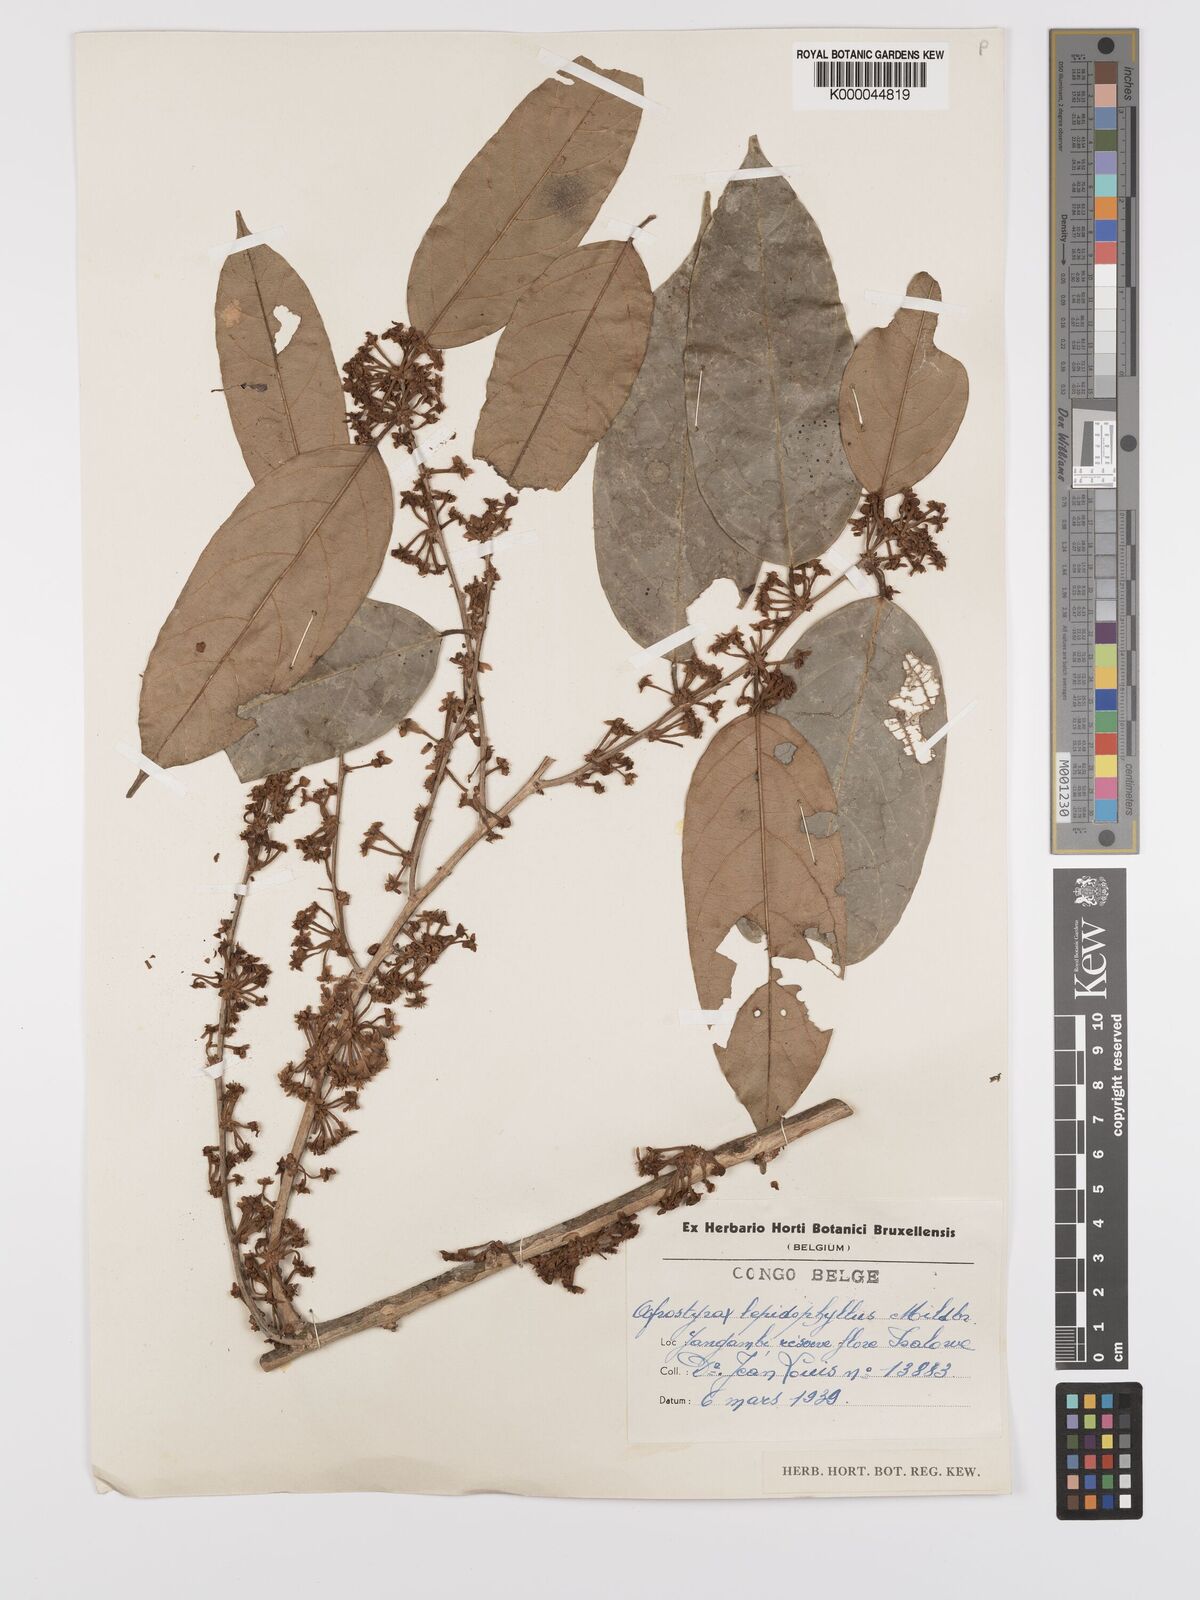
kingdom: Plantae
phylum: Tracheophyta
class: Magnoliopsida
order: Oxalidales
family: Huaceae
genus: Afrostyrax
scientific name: Afrostyrax lepidophyllus
